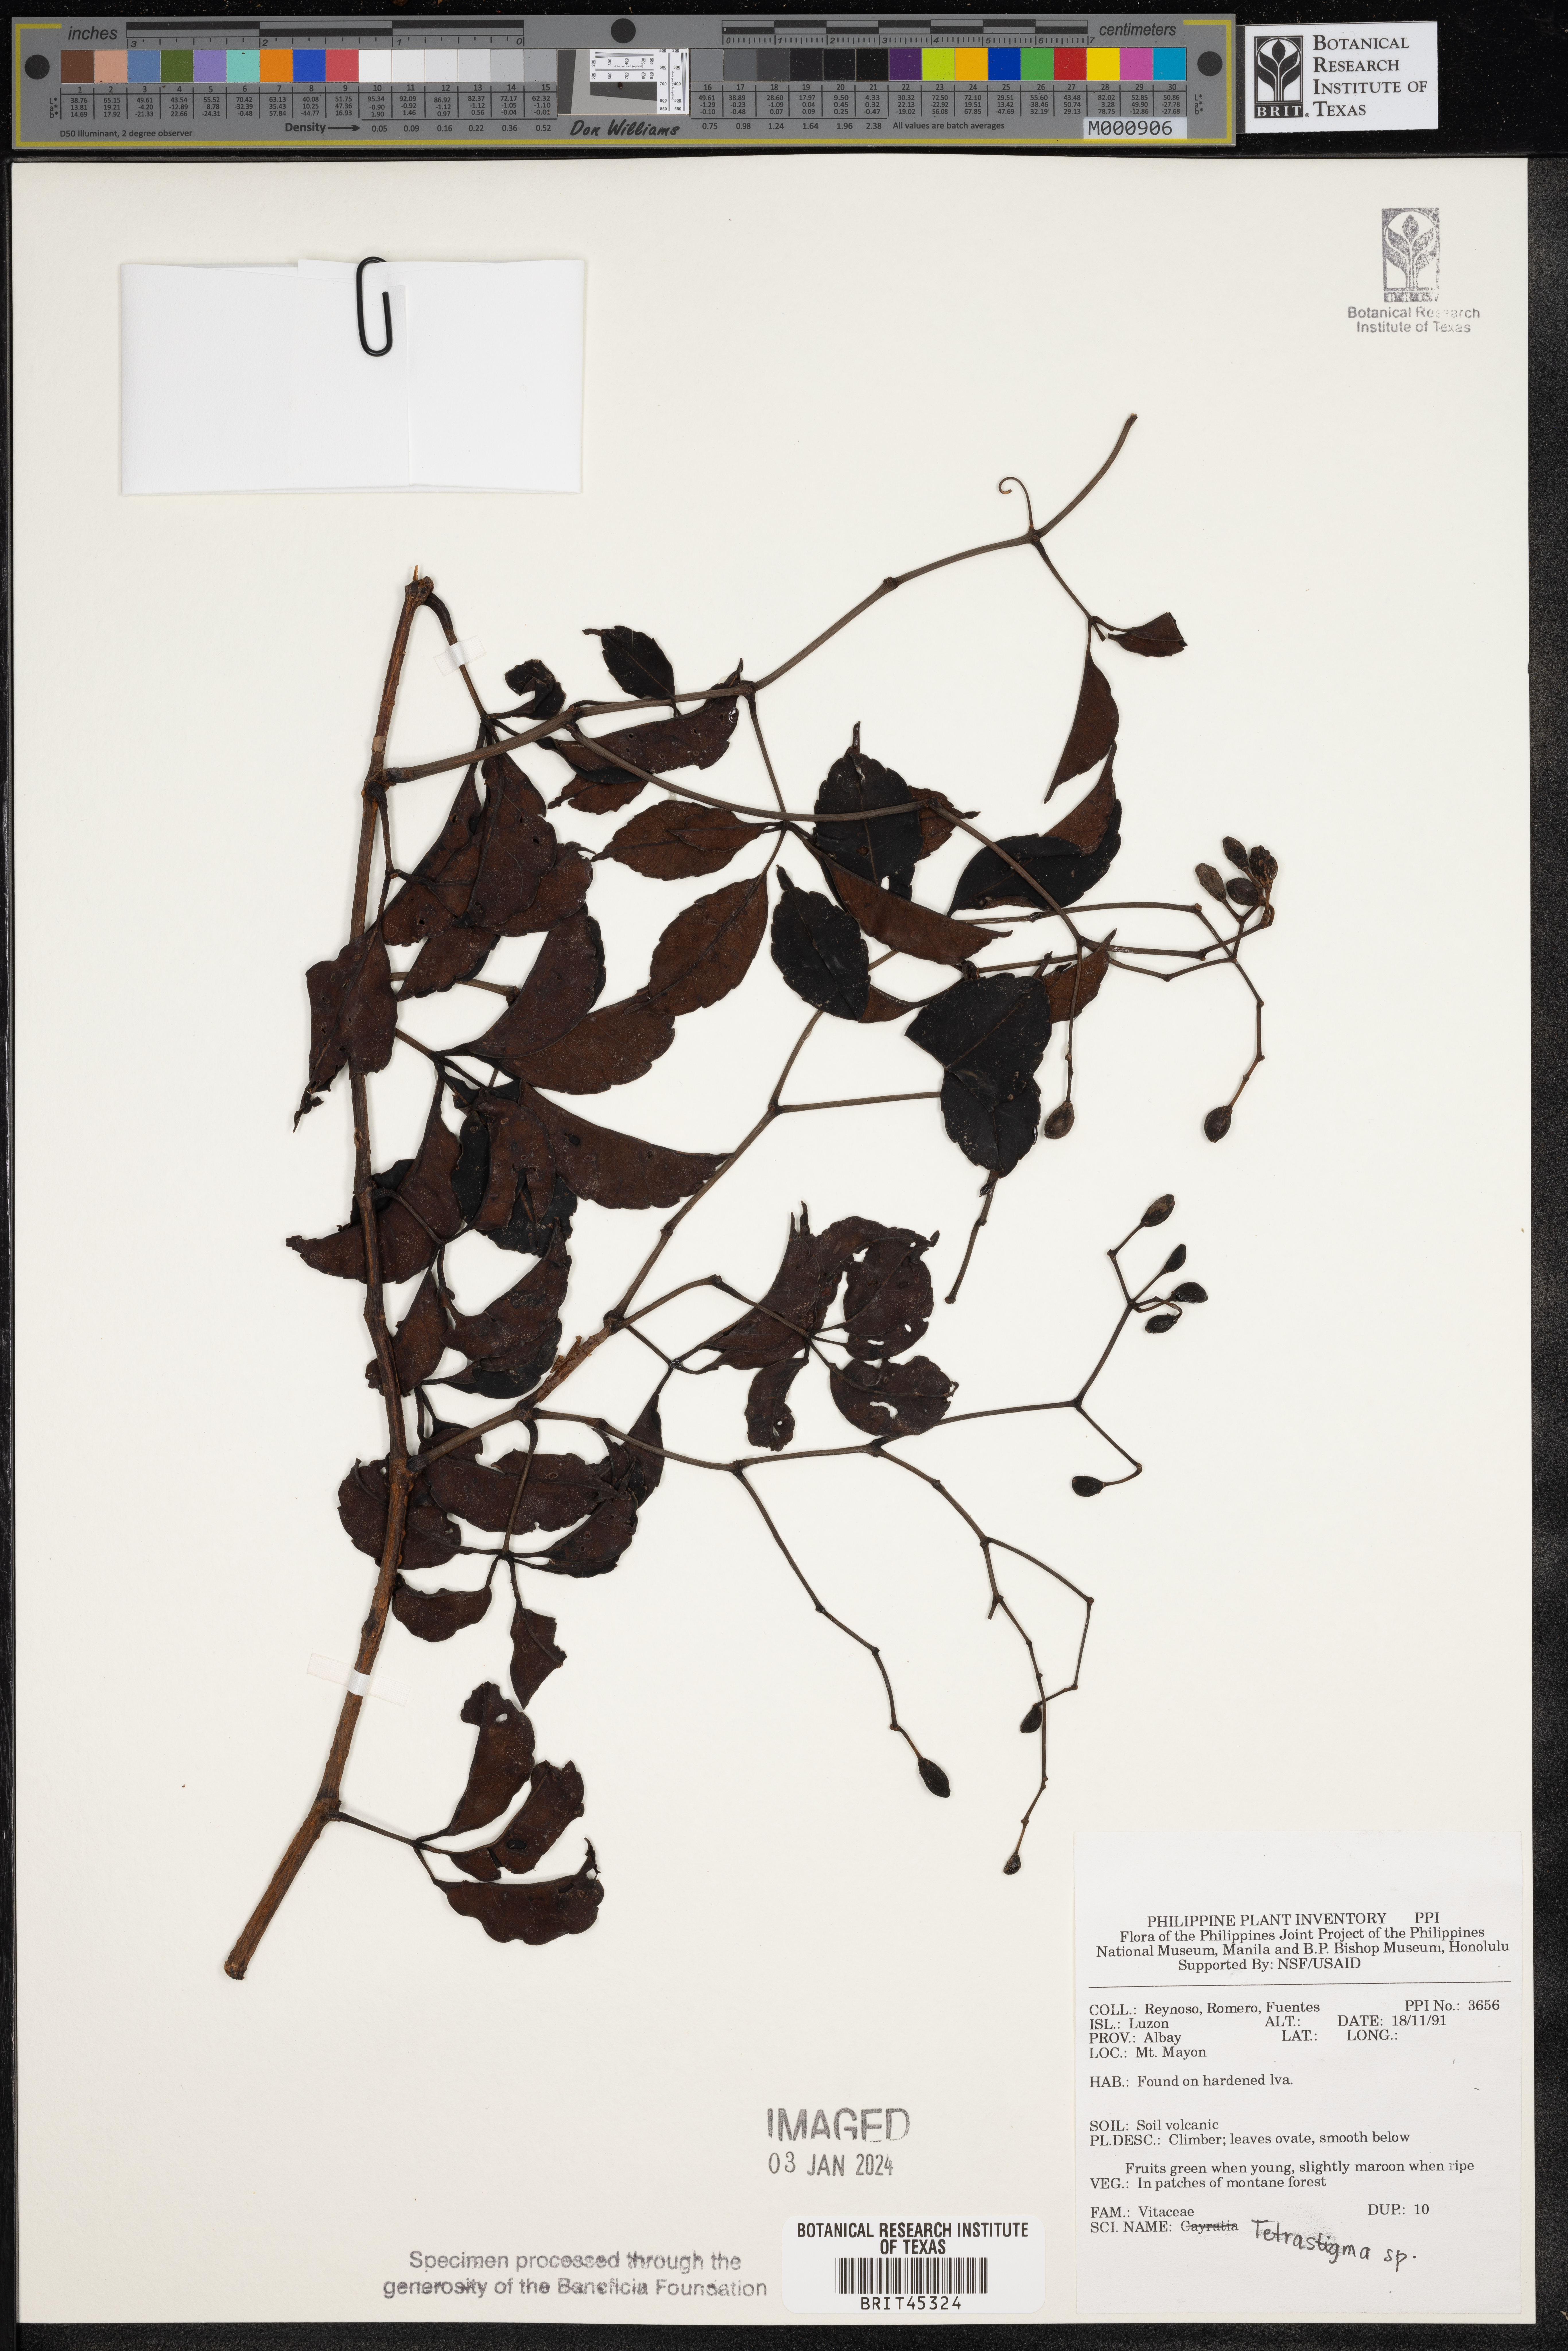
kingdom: Plantae
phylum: Tracheophyta
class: Magnoliopsida
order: Vitales
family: Vitaceae
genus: Tetrastigma
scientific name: Tetrastigma
